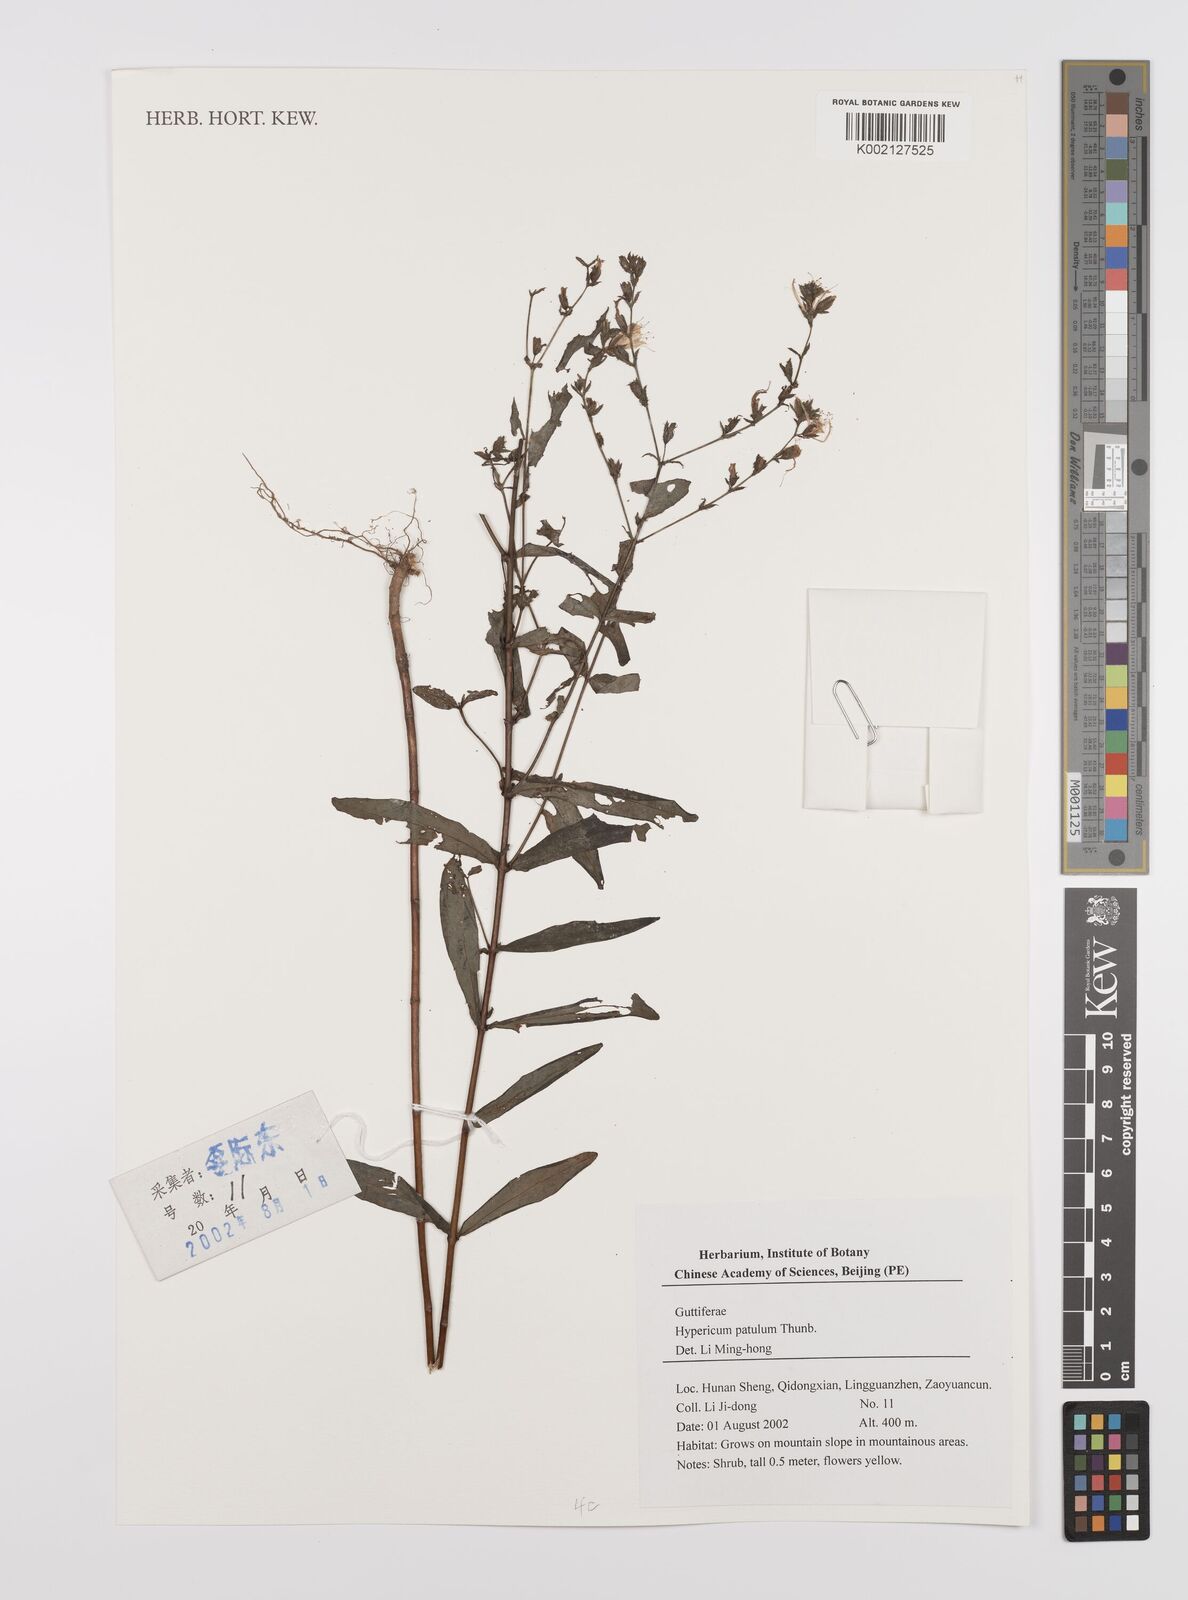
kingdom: Plantae
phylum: Tracheophyta
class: Magnoliopsida
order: Malpighiales
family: Hypericaceae
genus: Hypericum
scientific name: Hypericum patulum
